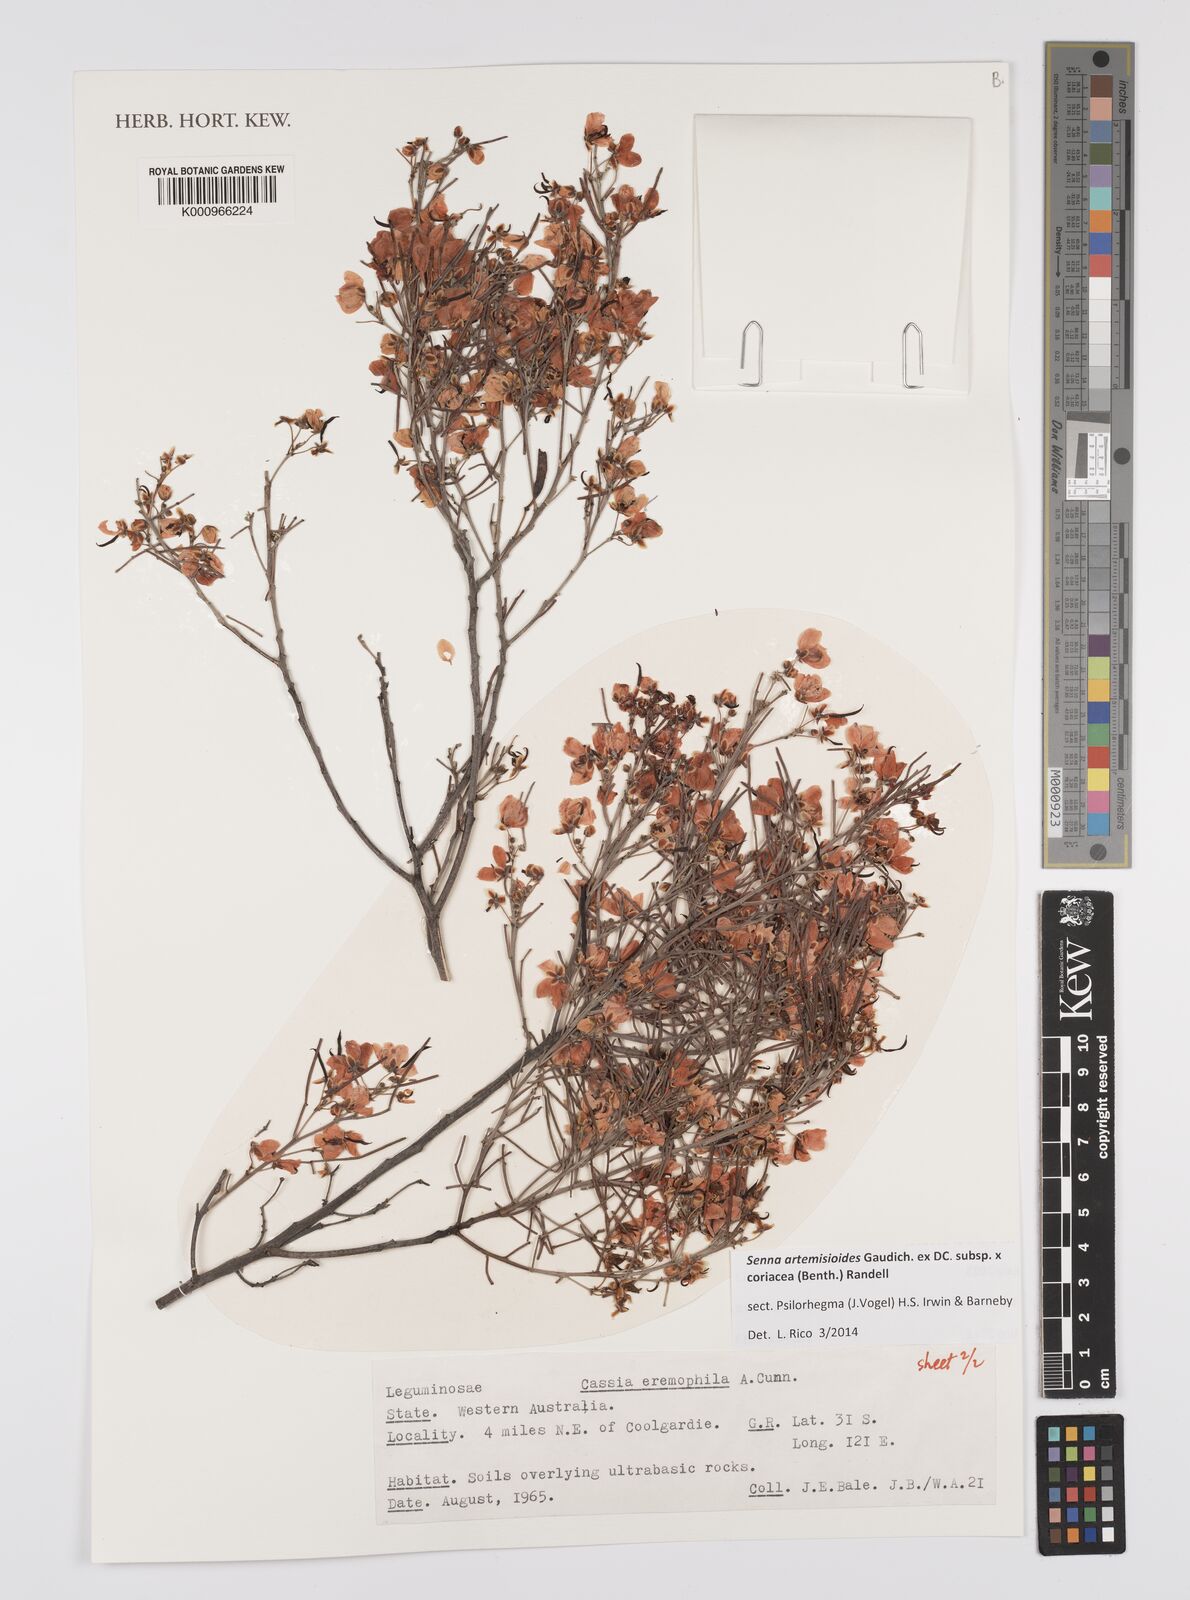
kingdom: Plantae
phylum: Tracheophyta
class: Magnoliopsida
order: Fabales
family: Fabaceae
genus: Senna
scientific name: Senna artemisioides
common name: Burnt-leaved acacia
